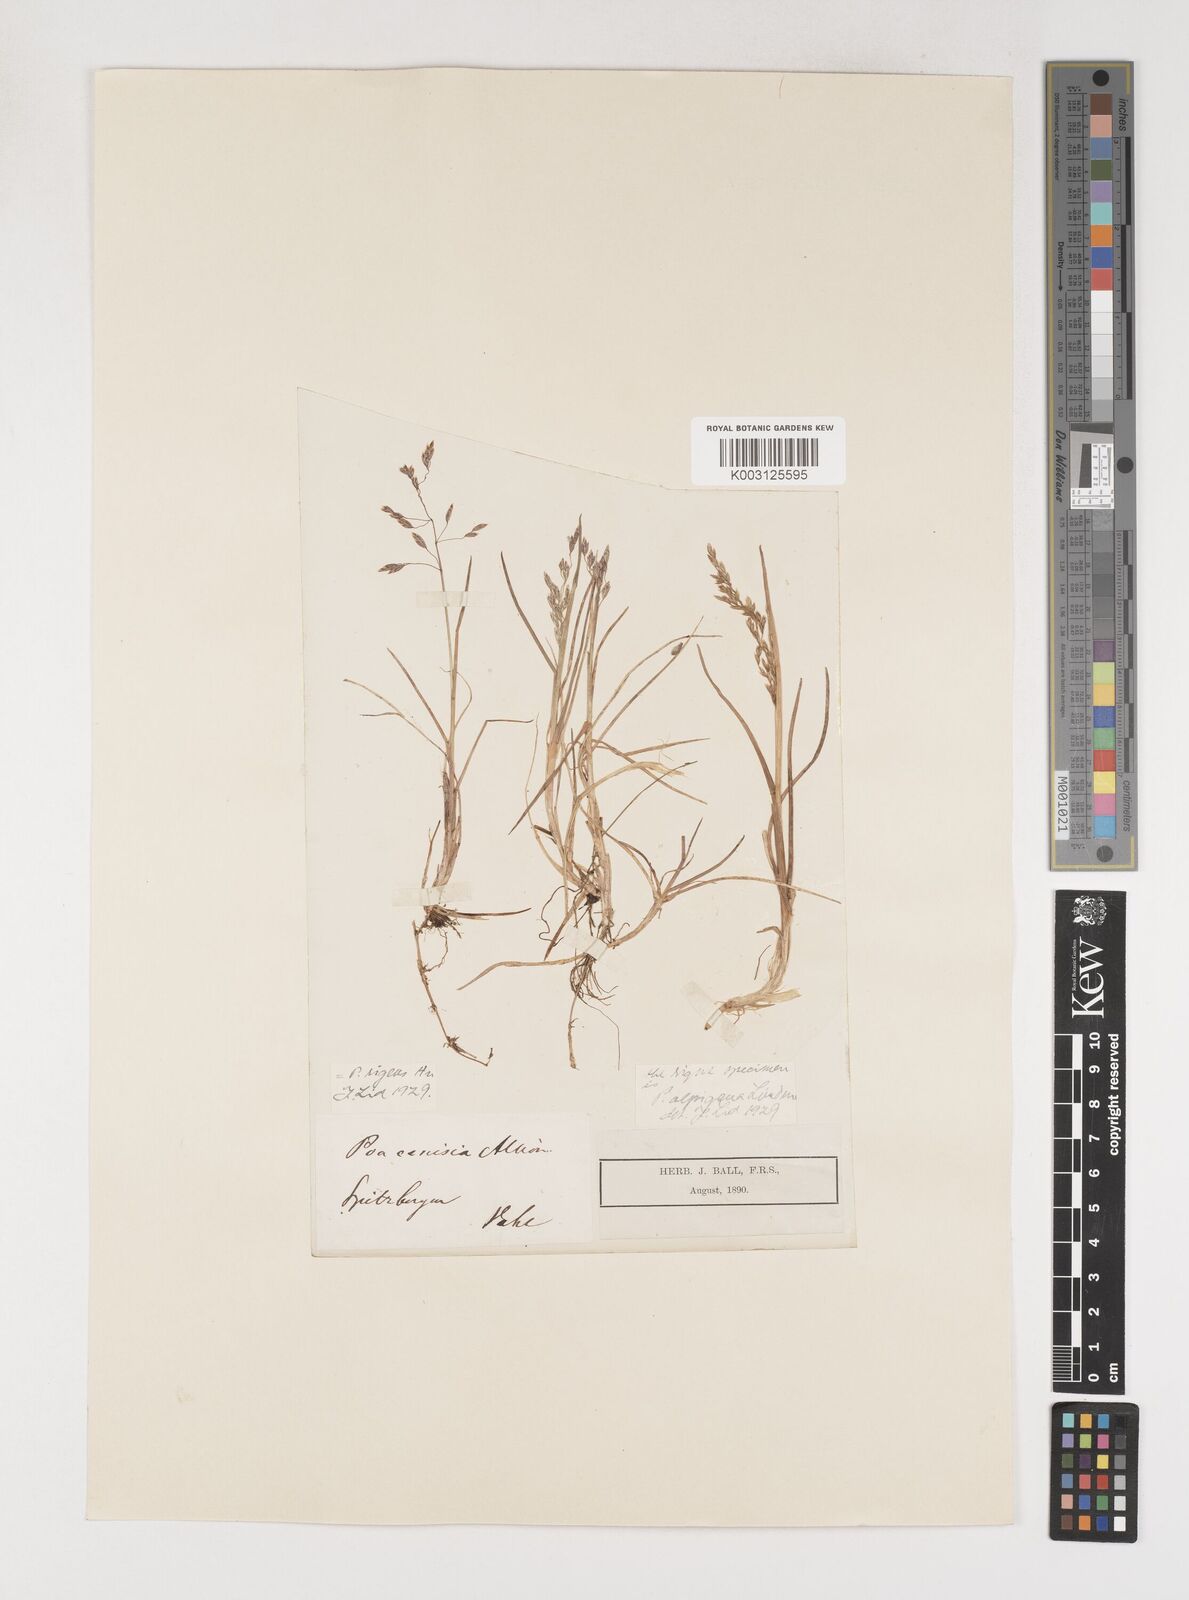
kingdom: Plantae
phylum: Tracheophyta
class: Liliopsida
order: Poales
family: Poaceae
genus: Poa
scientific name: Poa arctica
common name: Arctic bluegrass
